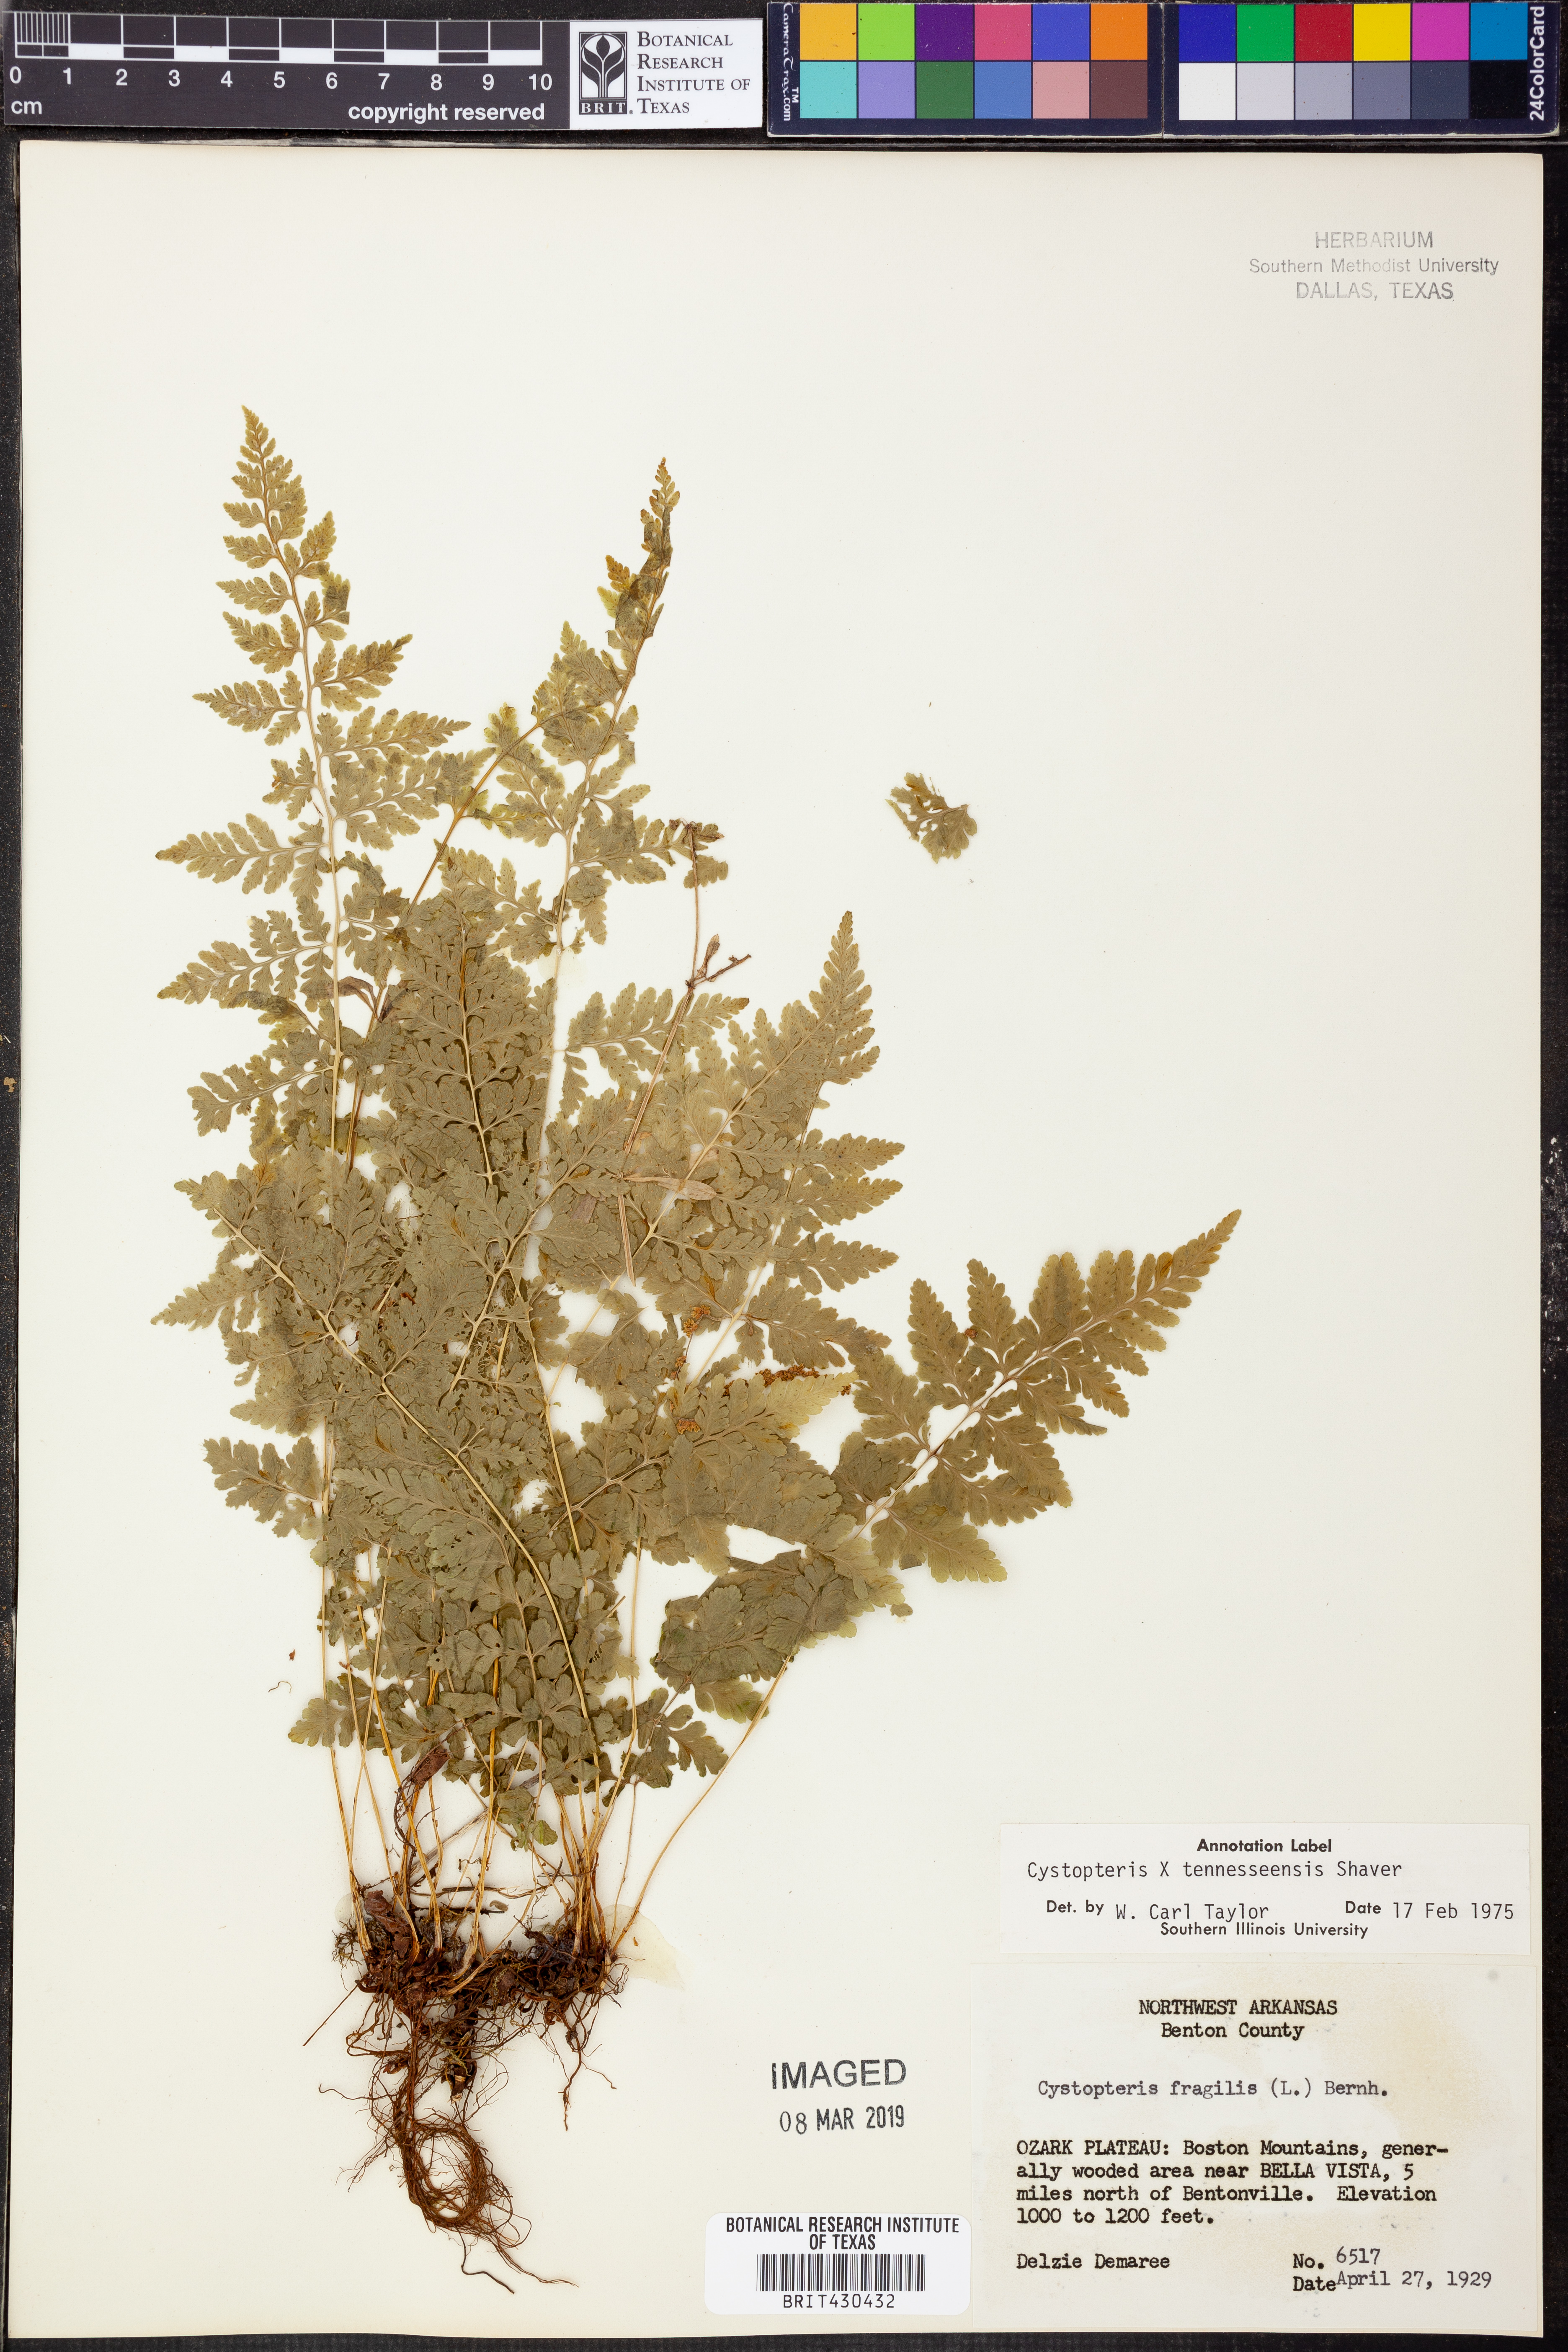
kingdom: Plantae
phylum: Tracheophyta
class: Polypodiopsida
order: Polypodiales
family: Cystopteridaceae
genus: Cystopteris
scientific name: Cystopteris tennesseensis
